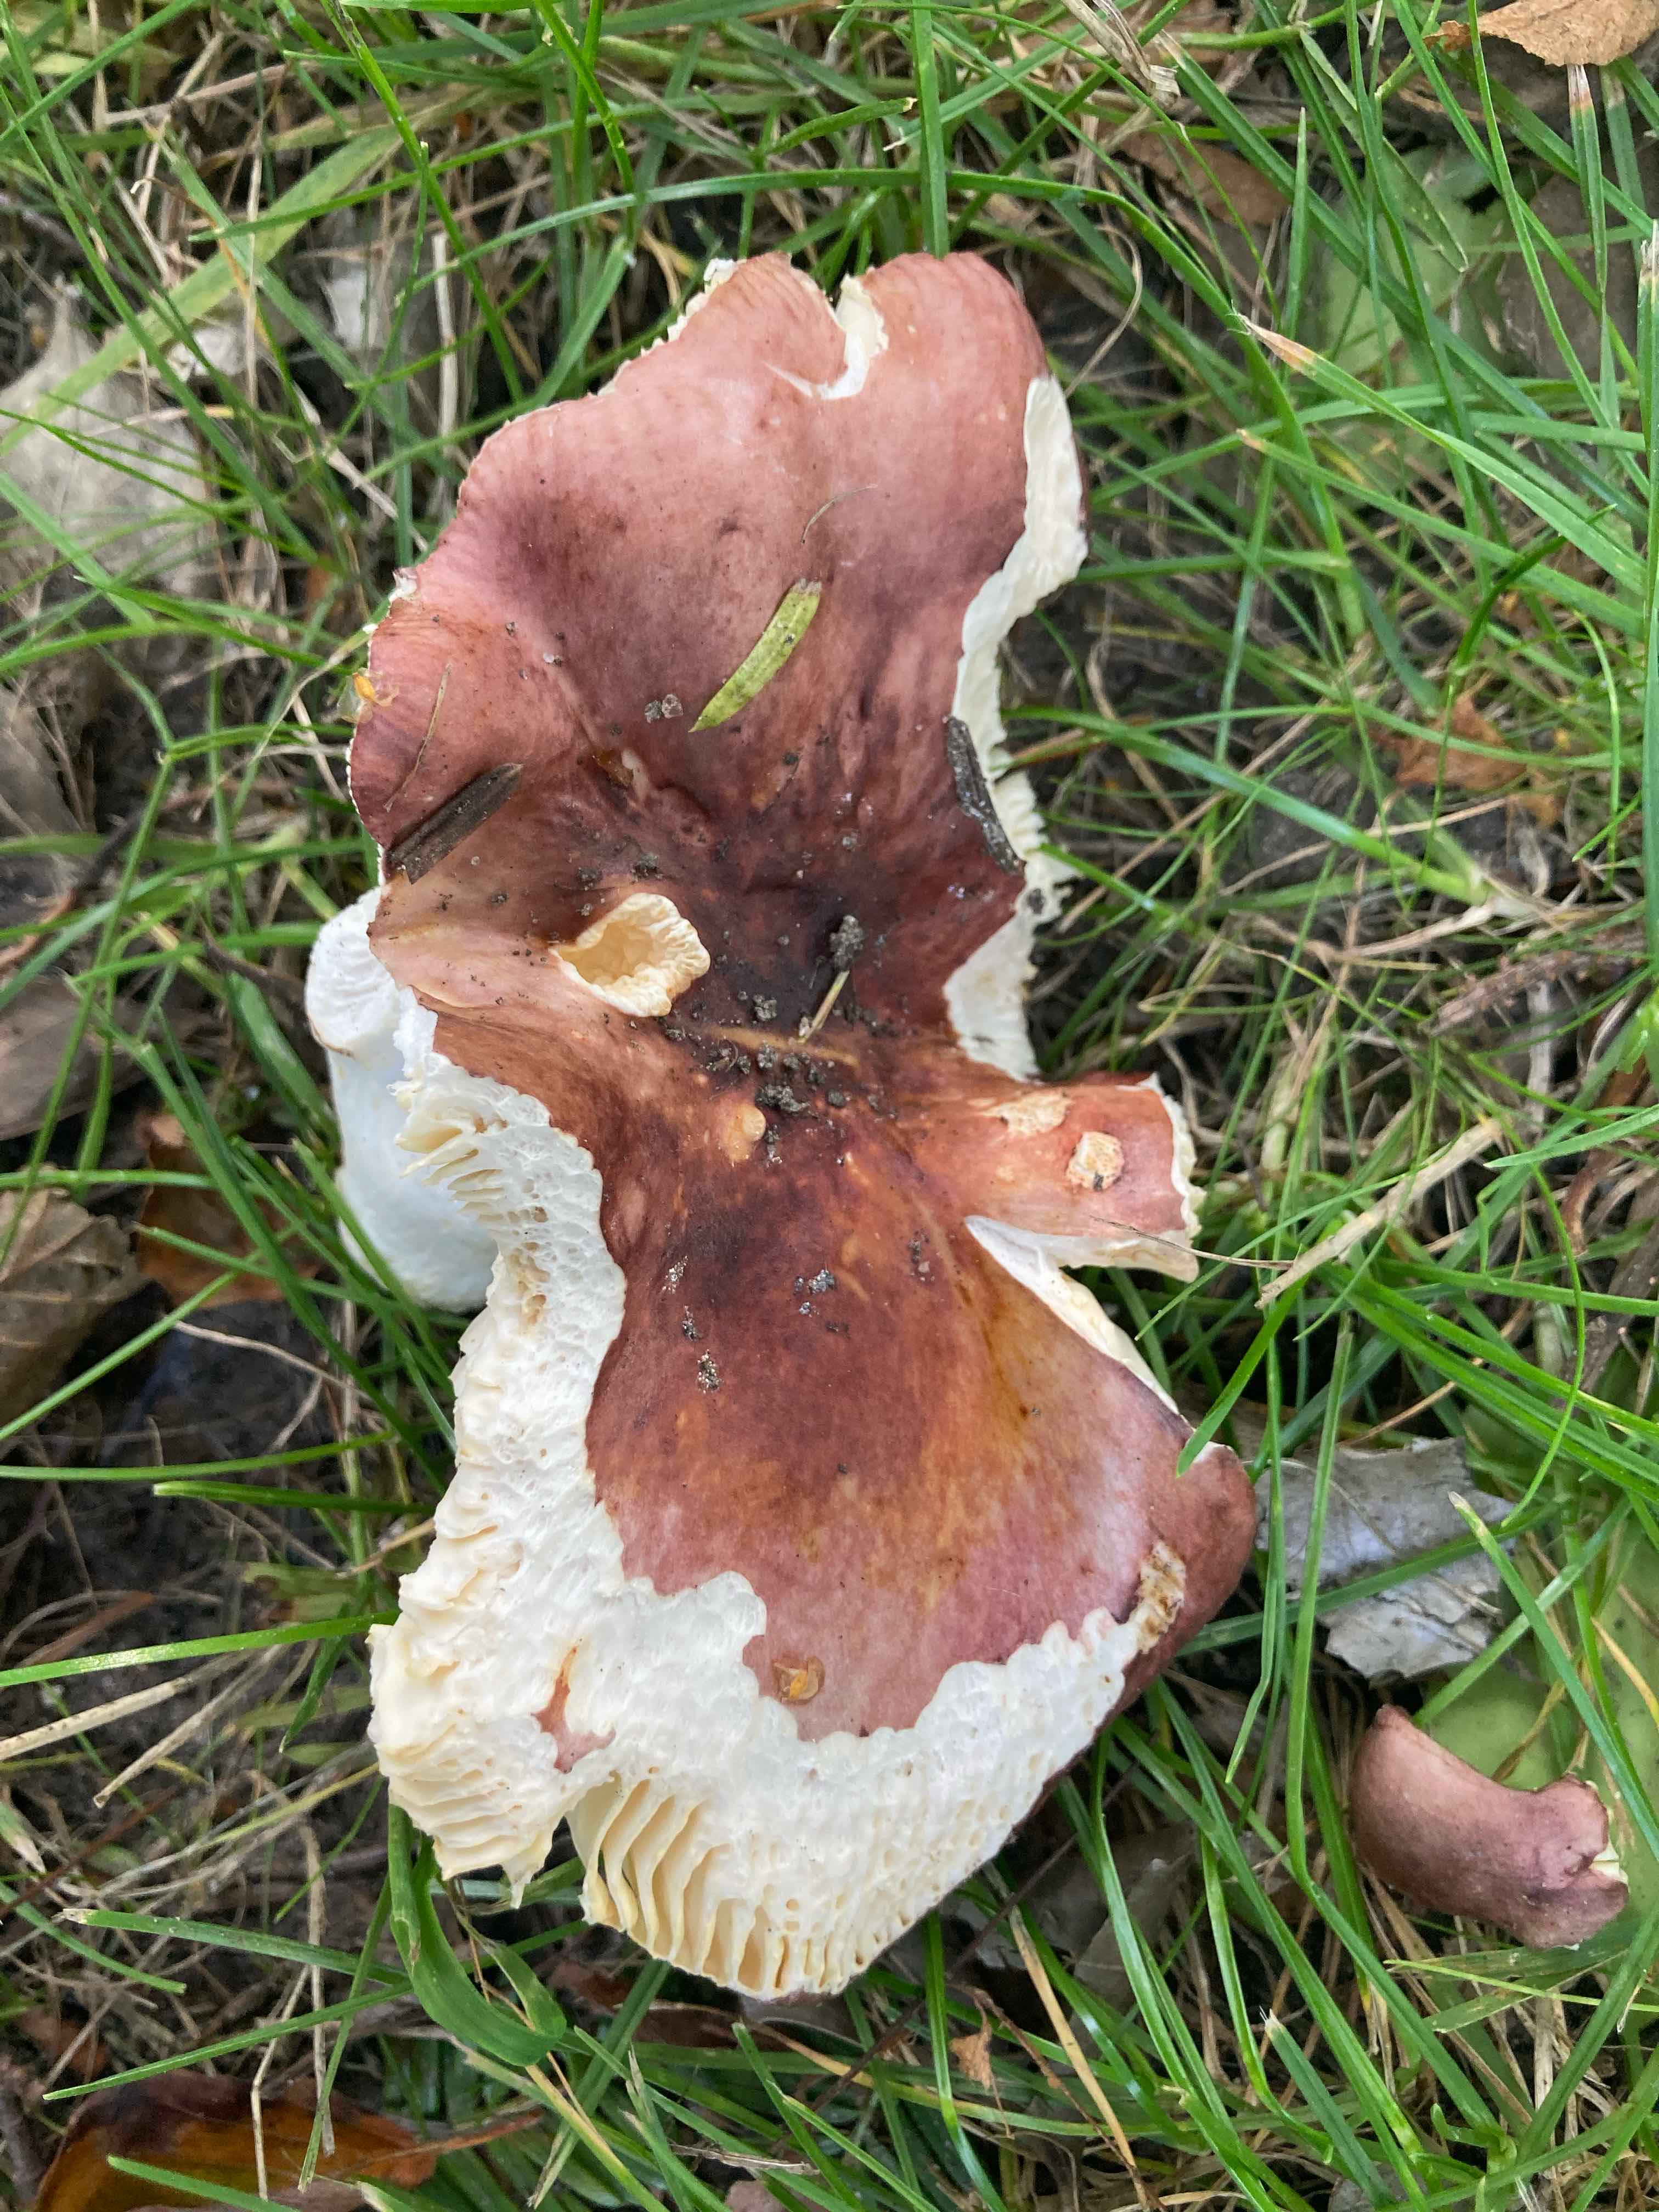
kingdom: Fungi
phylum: Basidiomycota
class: Agaricomycetes
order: Russulales
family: Russulaceae
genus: Russula
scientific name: Russula
